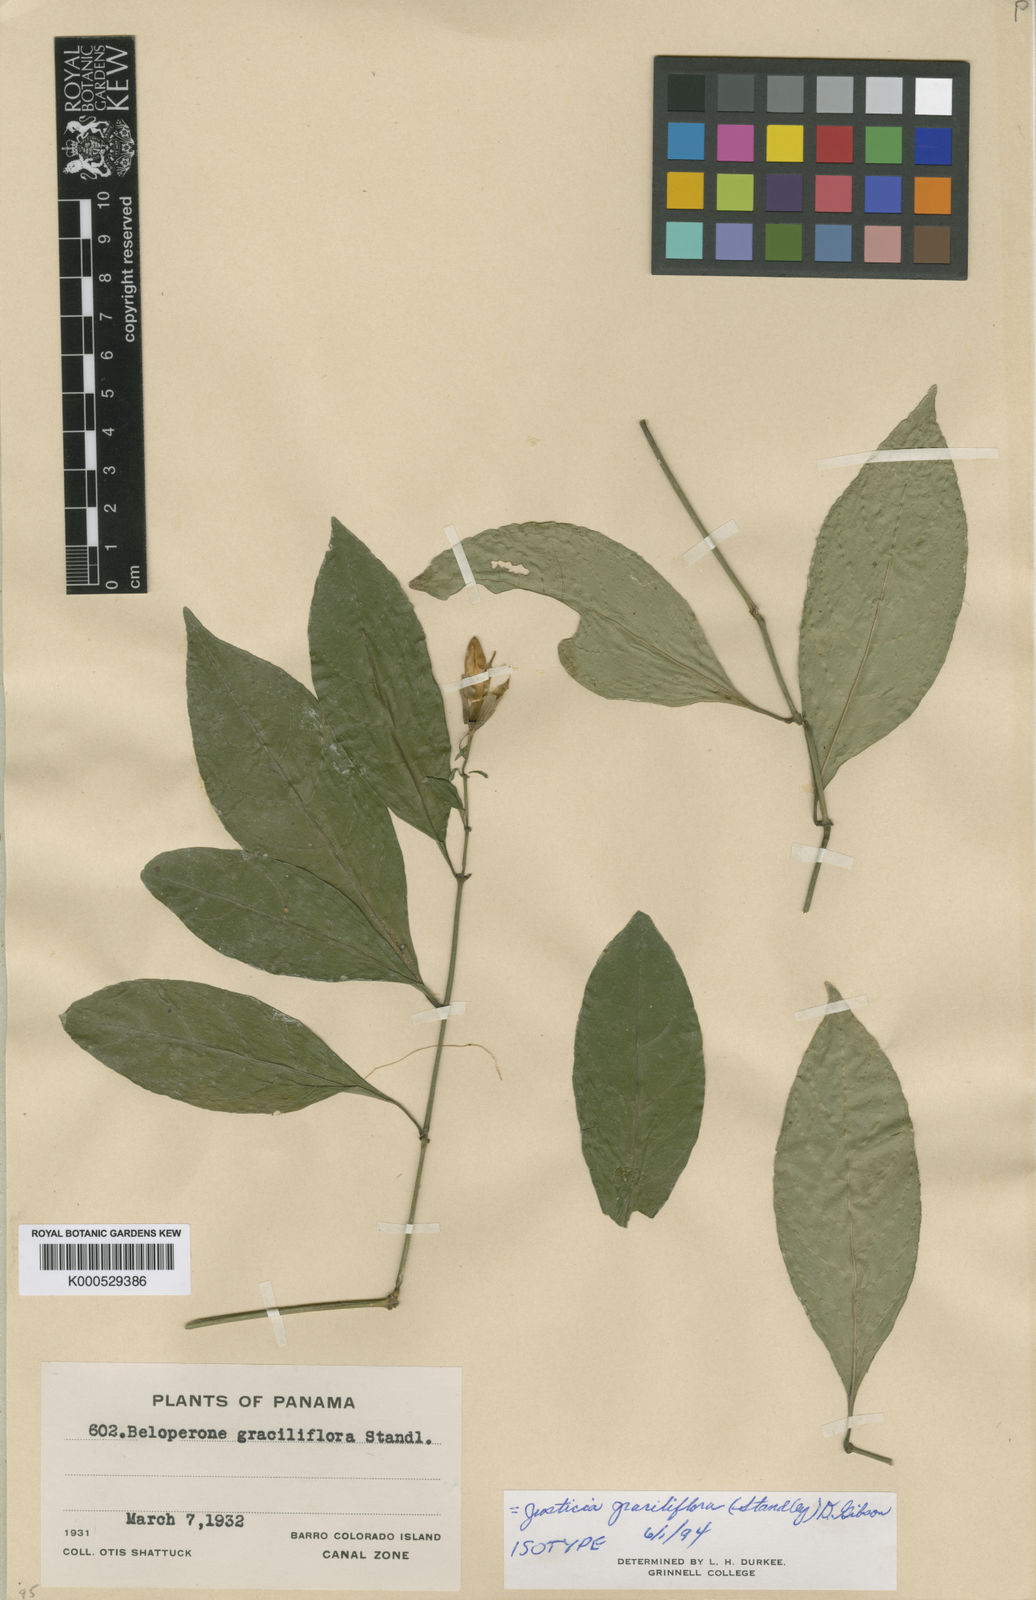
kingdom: Plantae
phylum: Tracheophyta
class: Magnoliopsida
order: Lamiales
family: Acanthaceae
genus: Justicia
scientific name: Justicia graciliflora
